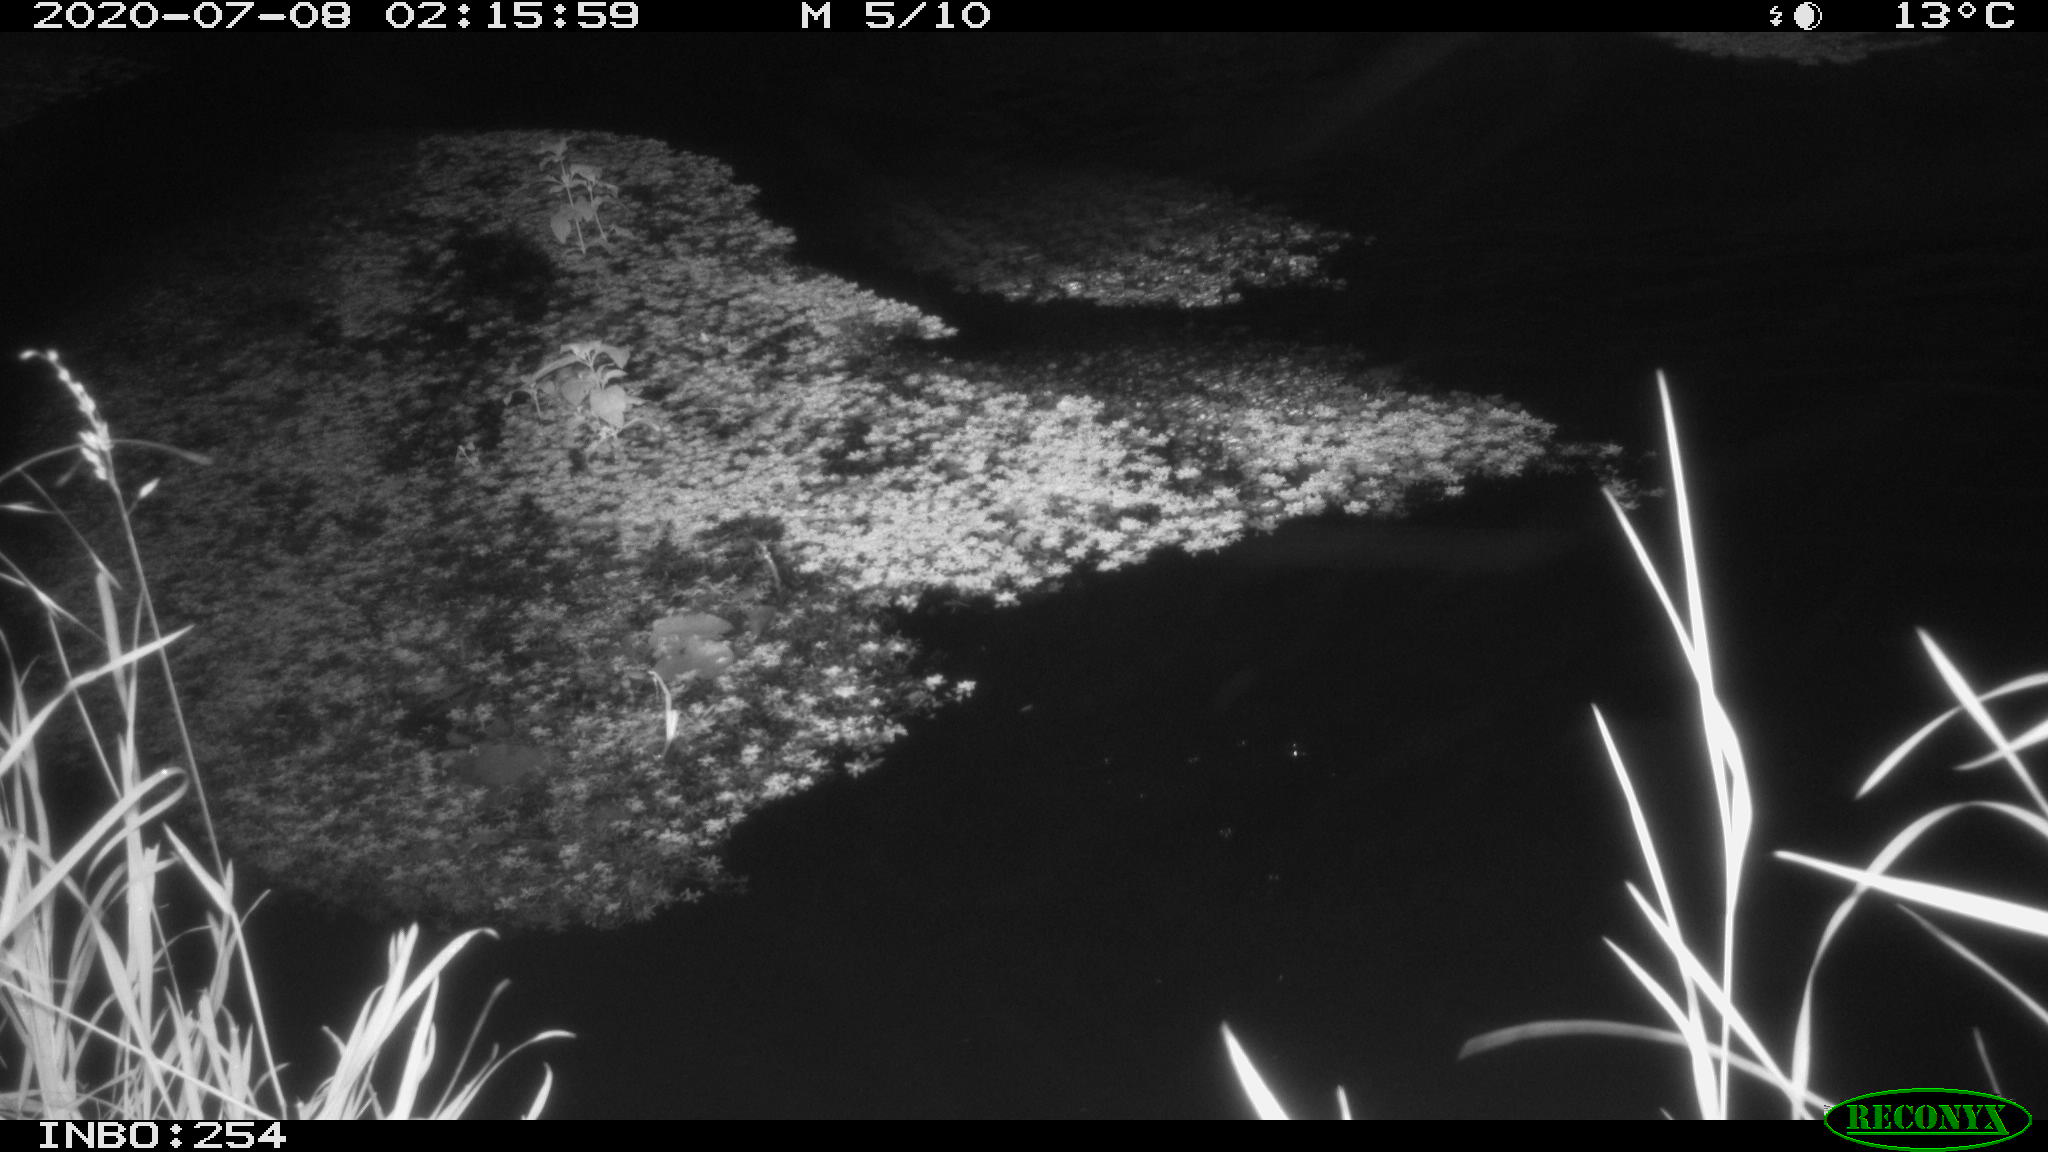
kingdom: Animalia
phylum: Chordata
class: Mammalia
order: Artiodactyla
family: Cervidae
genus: Capreolus
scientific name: Capreolus capreolus
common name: Western roe deer
